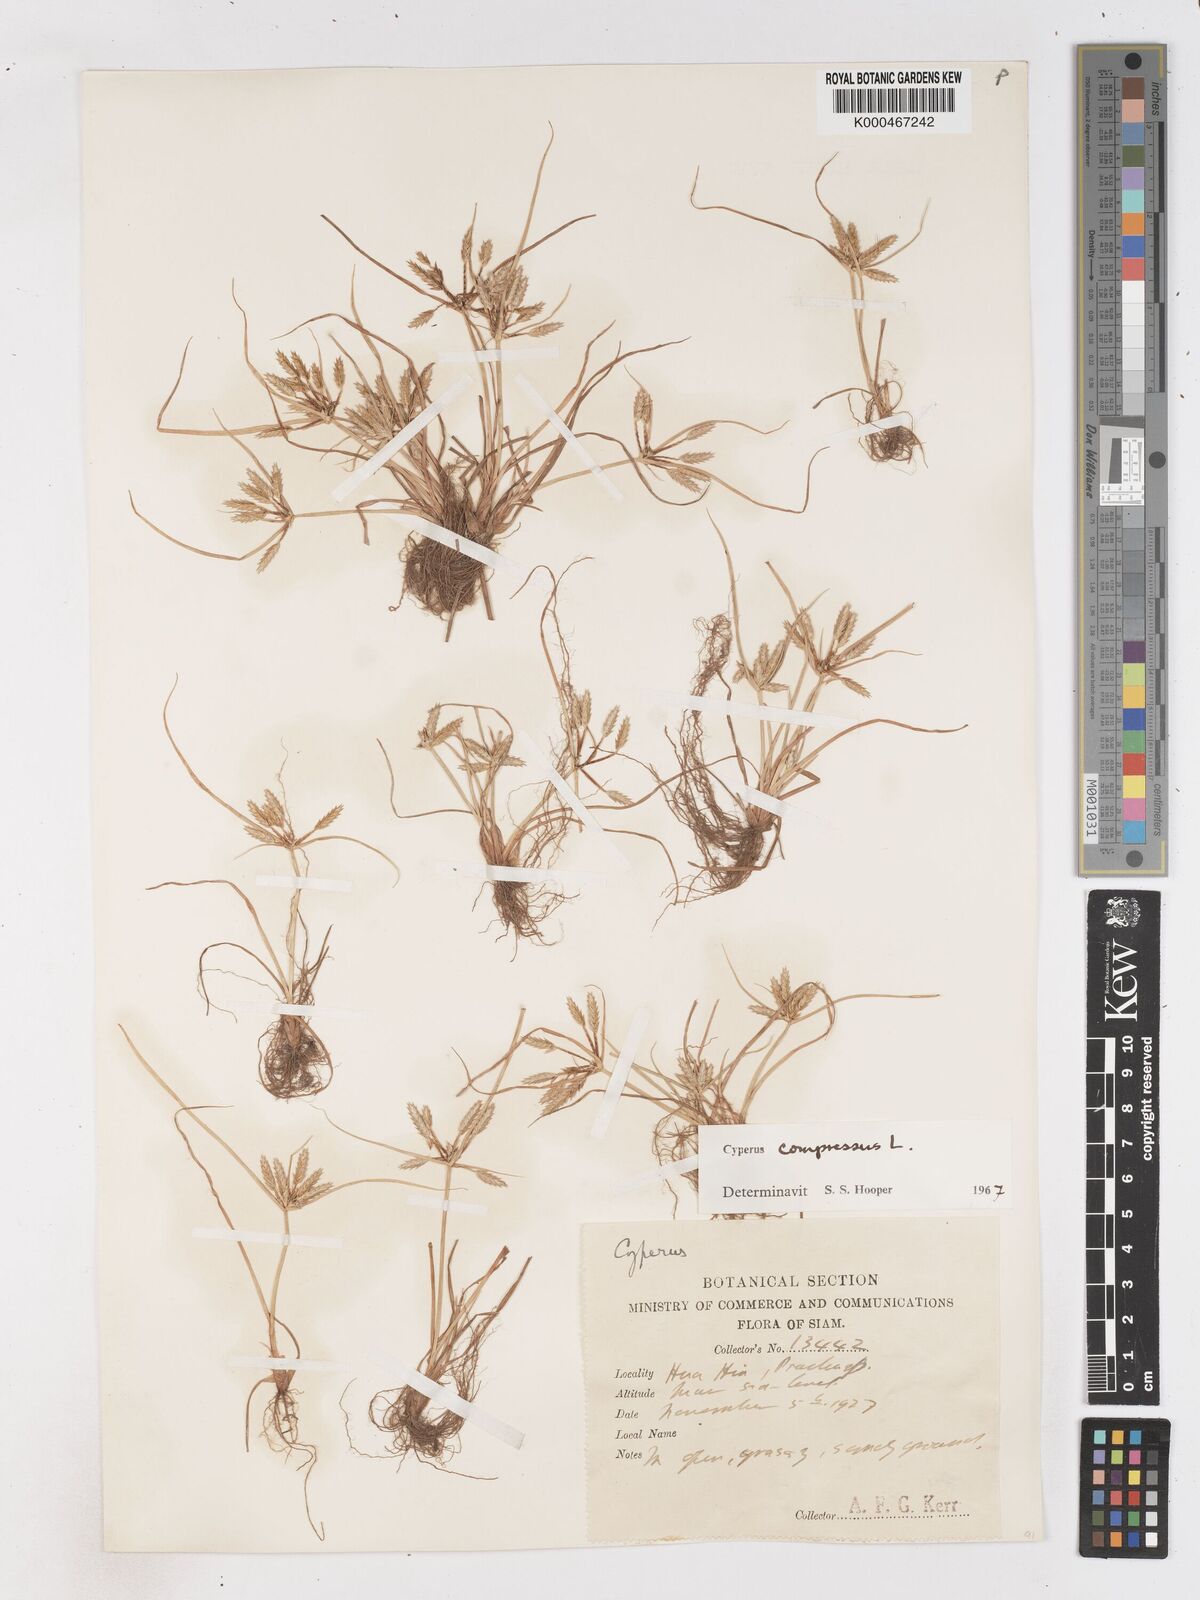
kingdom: Plantae
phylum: Tracheophyta
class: Liliopsida
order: Poales
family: Cyperaceae
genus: Cyperus
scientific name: Cyperus compressus
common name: Poorland flatsedge
